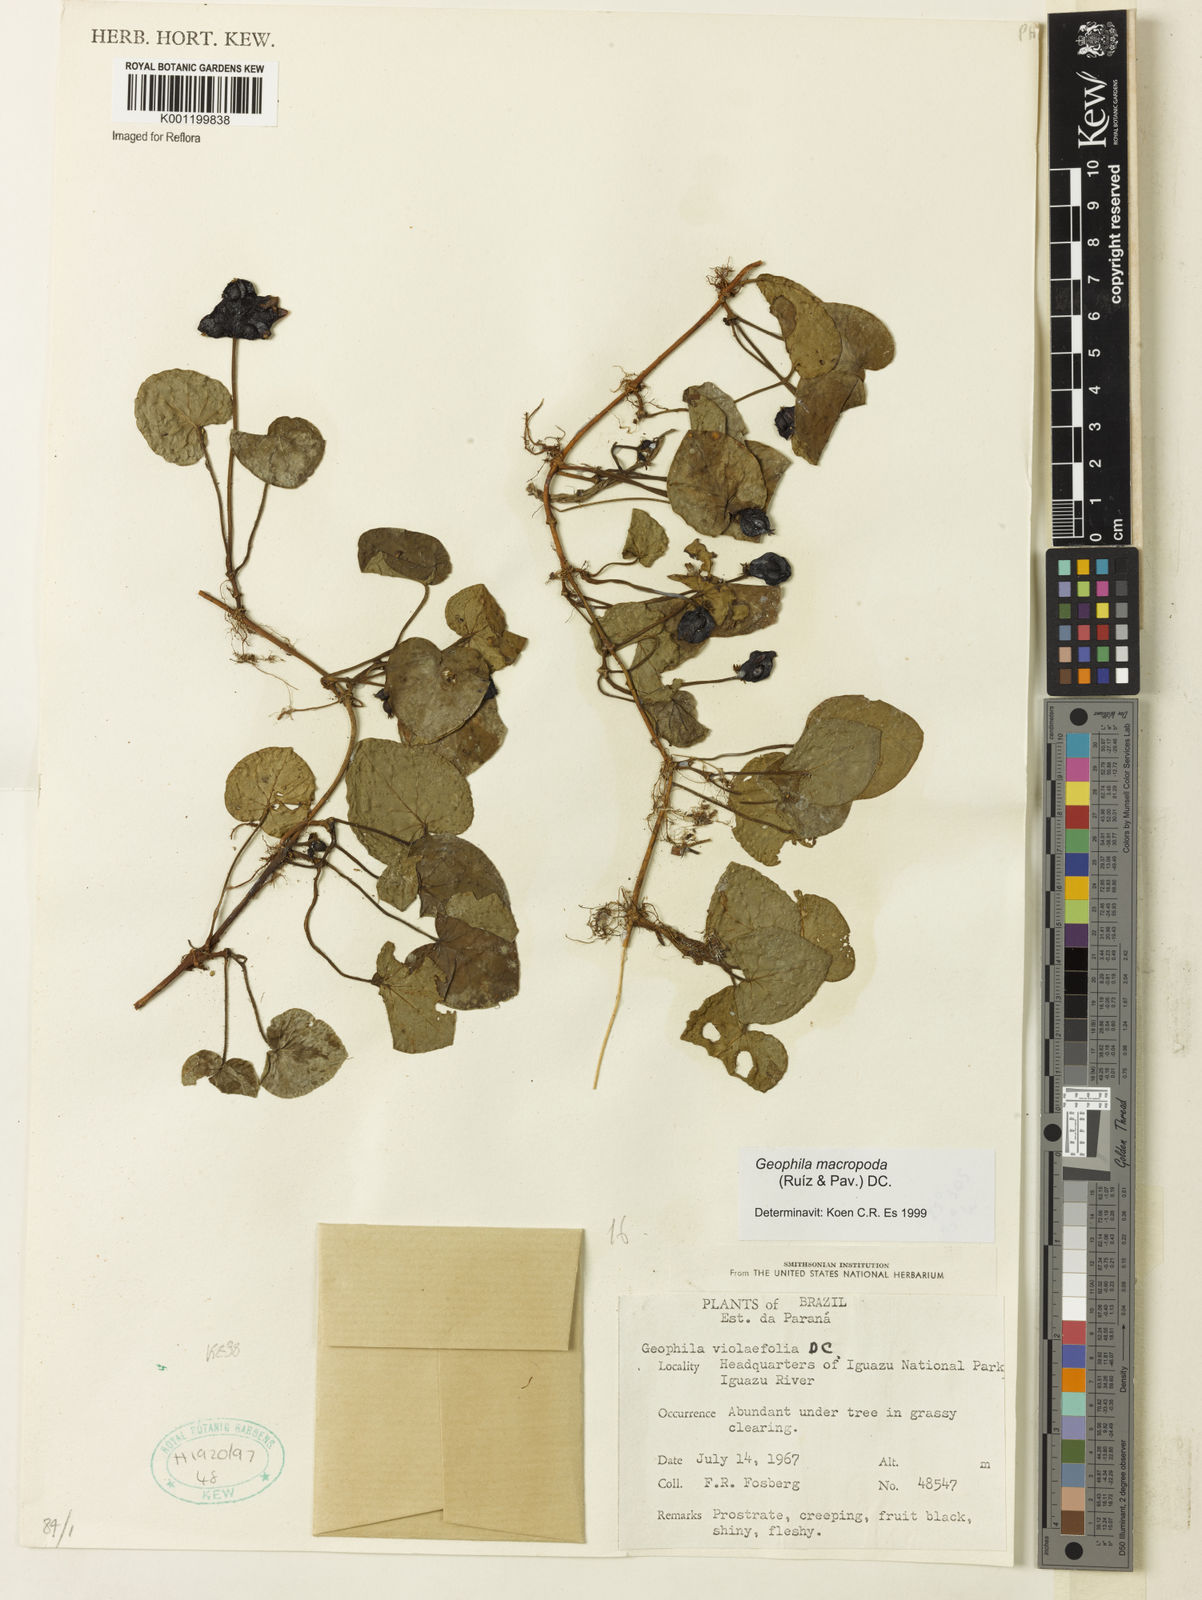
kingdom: Plantae
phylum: Tracheophyta
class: Magnoliopsida
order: Gentianales
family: Rubiaceae
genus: Geophila
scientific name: Geophila macropoda
